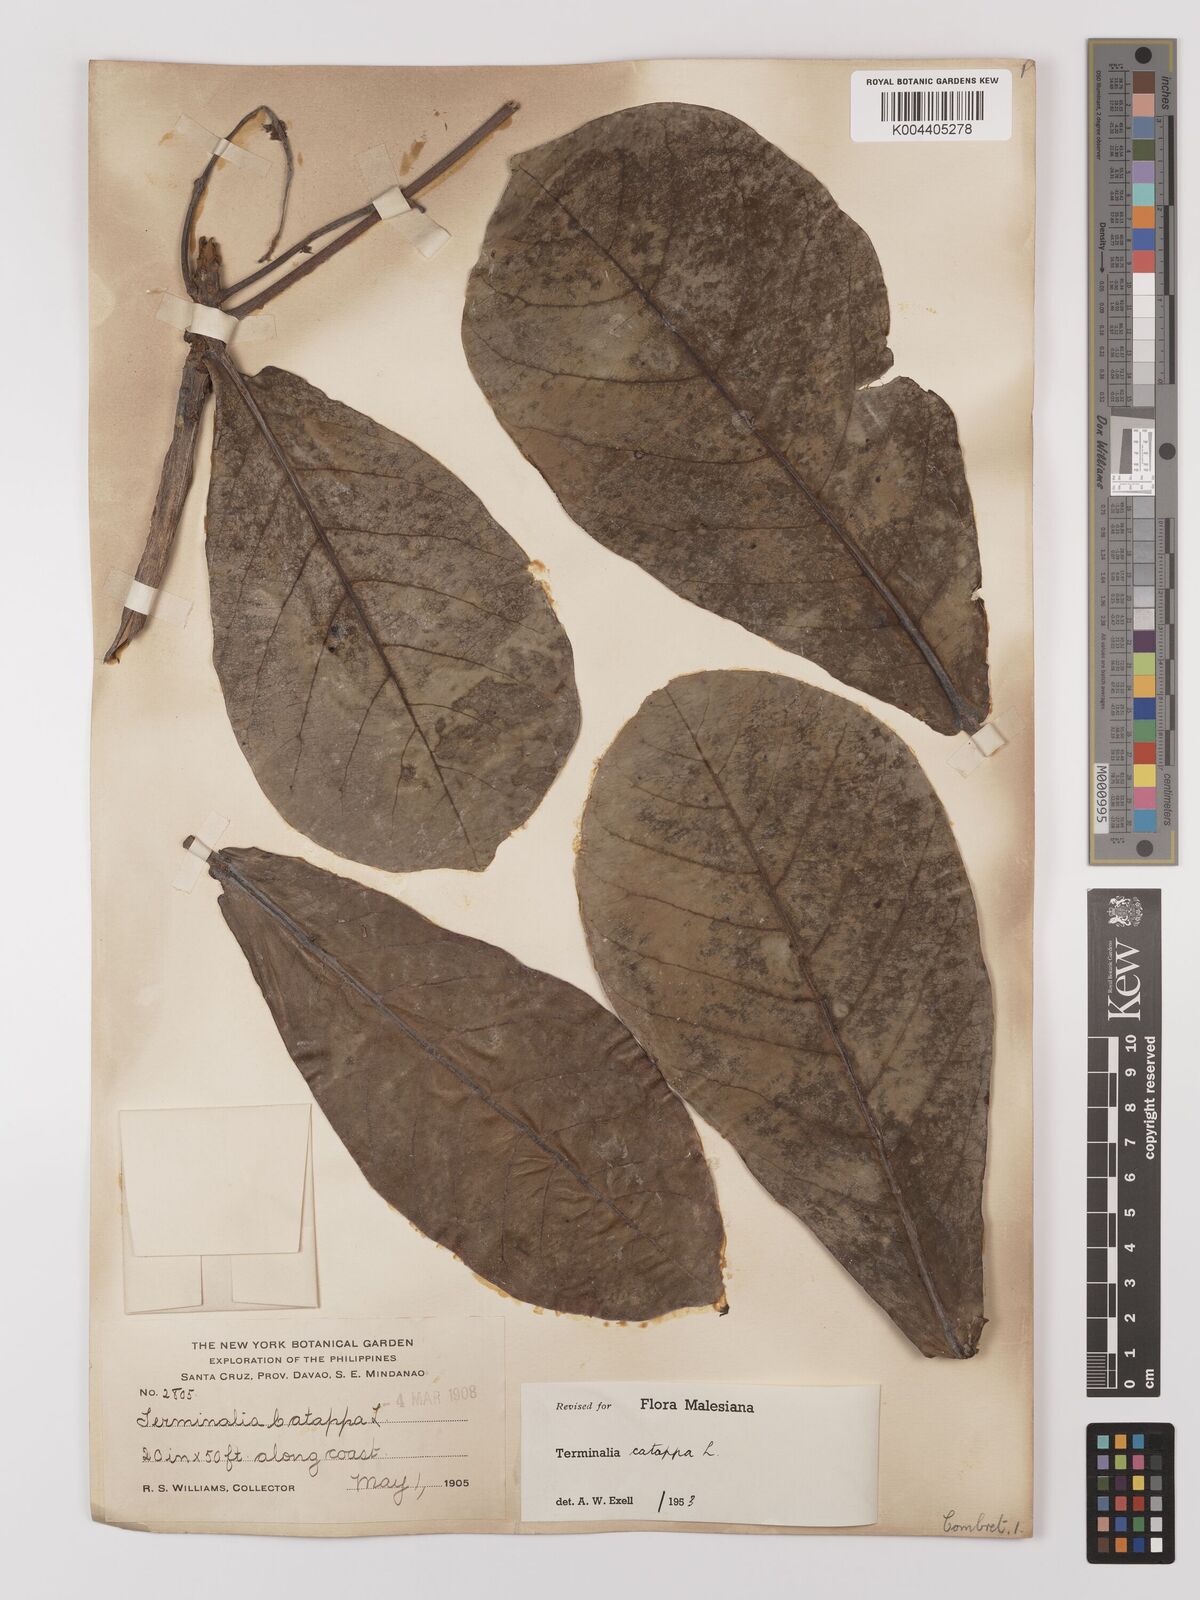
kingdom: Plantae
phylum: Tracheophyta
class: Magnoliopsida
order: Myrtales
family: Combretaceae
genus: Terminalia
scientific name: Terminalia catappa
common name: Tropical almond
